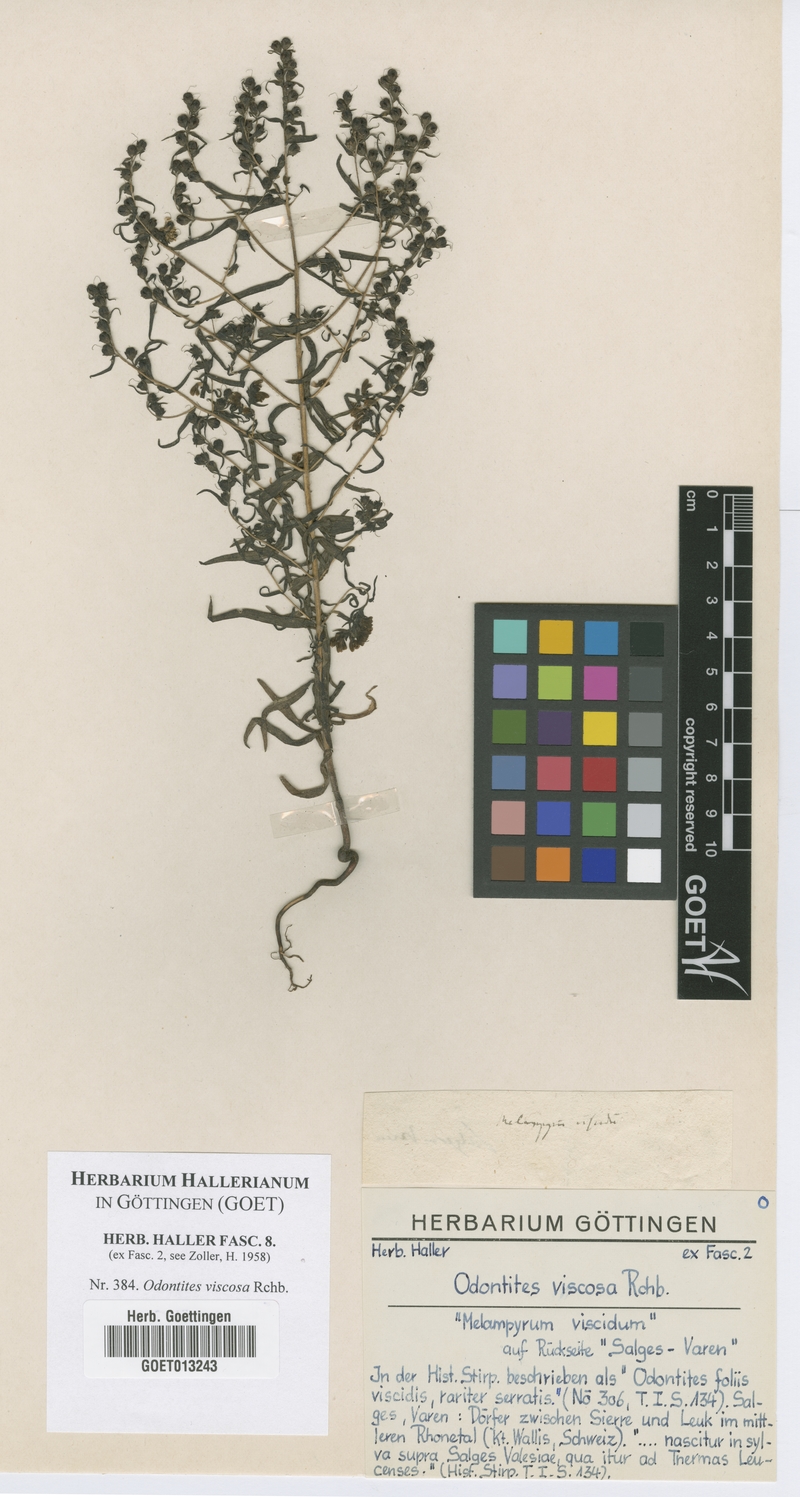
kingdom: Plantae
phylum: Tracheophyta
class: Magnoliopsida
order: Lamiales
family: Scrophulariaceae
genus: Odontites
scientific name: Odontites viscosus
